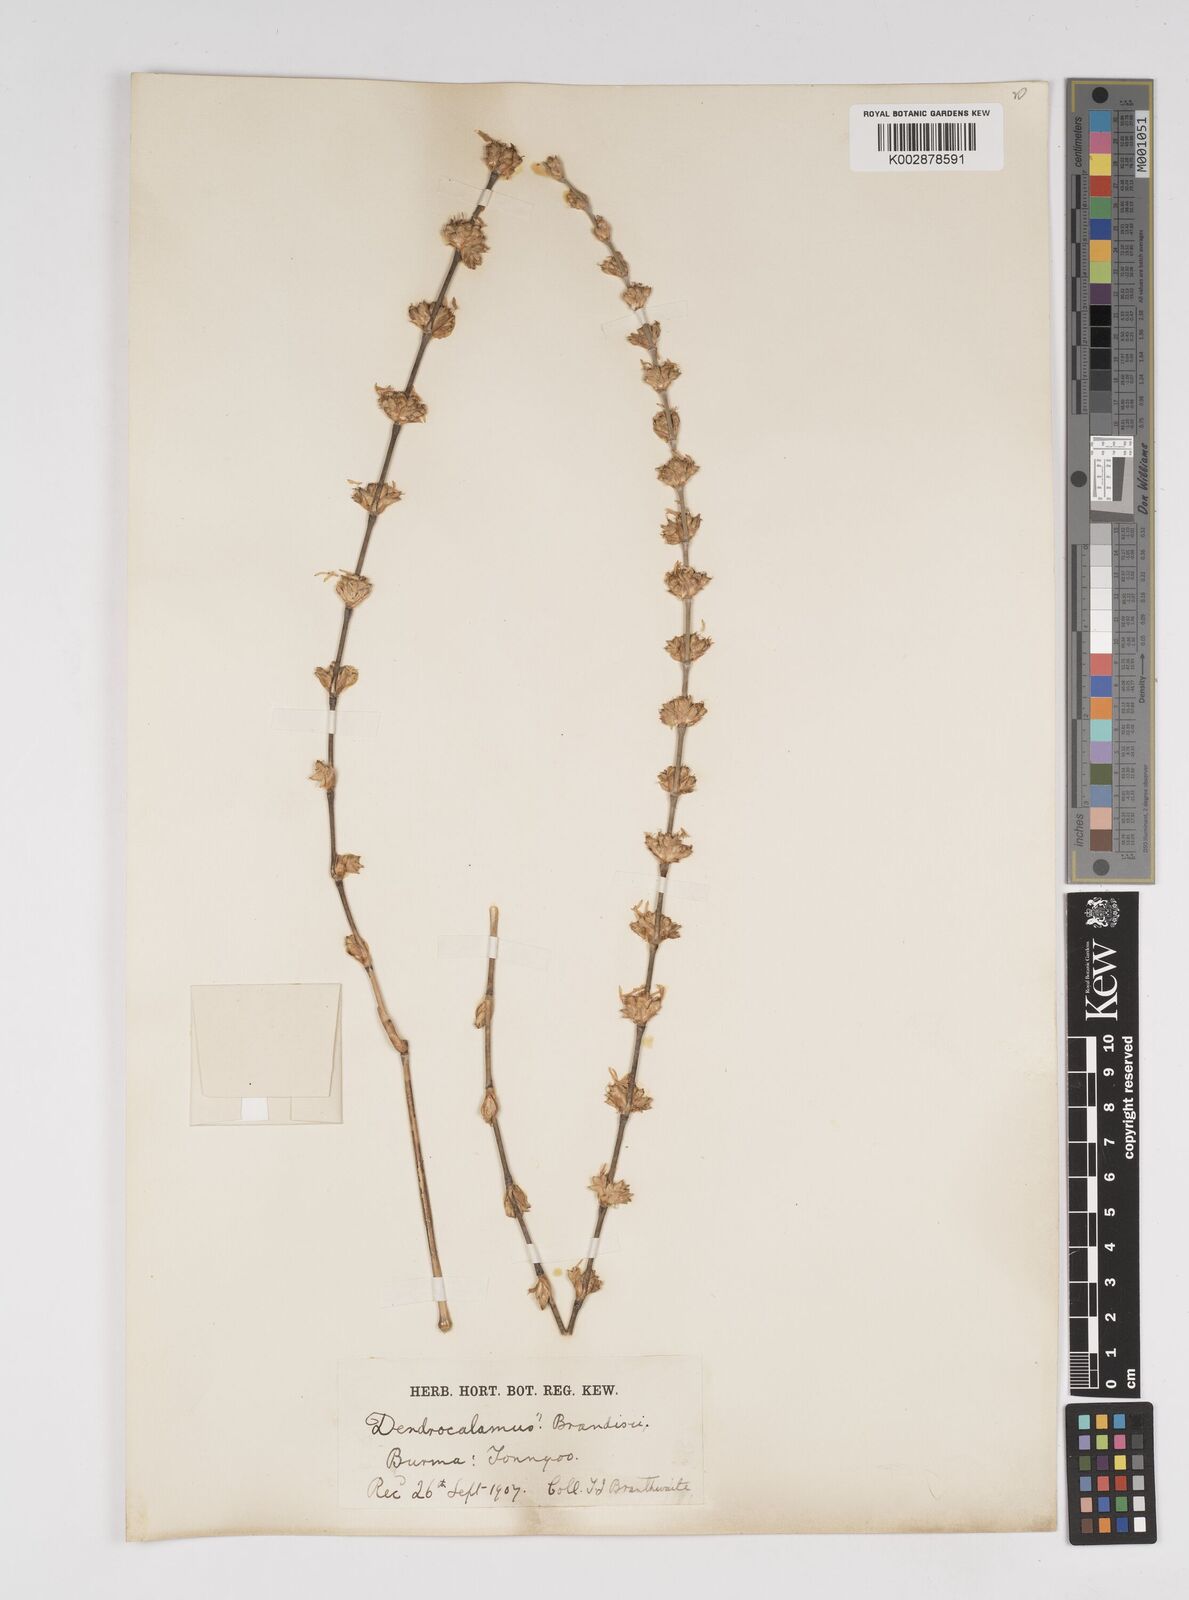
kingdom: Plantae
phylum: Tracheophyta
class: Liliopsida
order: Poales
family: Poaceae
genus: Dendrocalamus
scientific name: Dendrocalamus brandisii
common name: Velvetleaf bamboo
